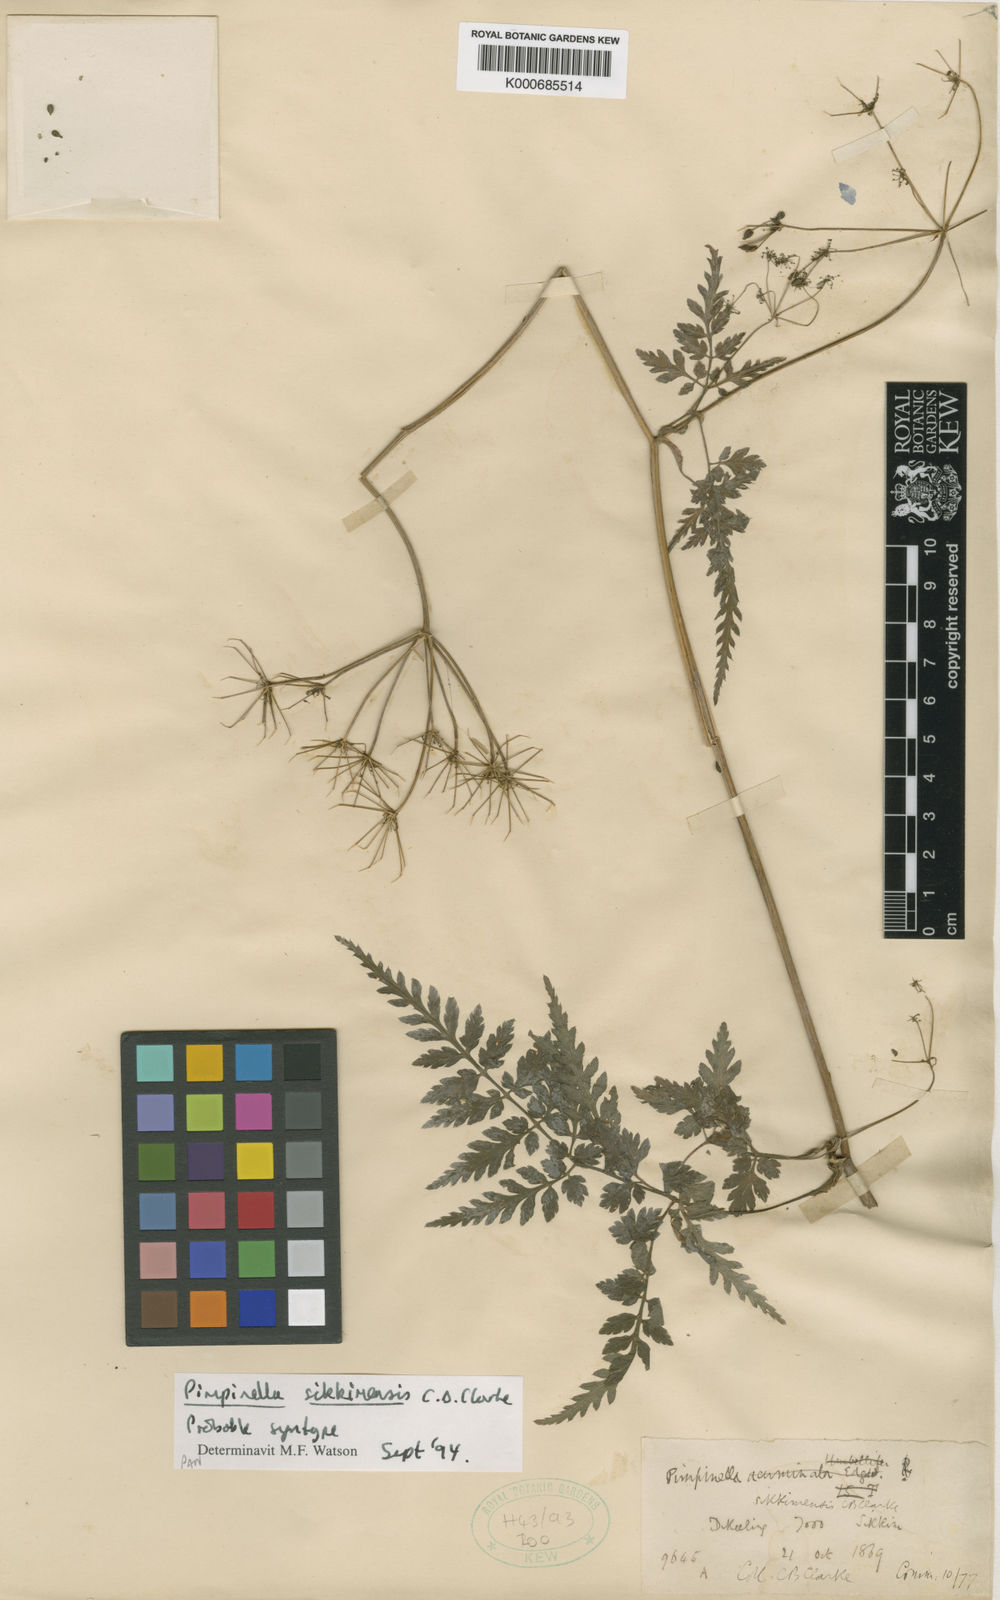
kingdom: Plantae
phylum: Tracheophyta
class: Magnoliopsida
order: Apiales
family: Apiaceae
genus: Pimpinella
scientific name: Pimpinella sikkimensis
